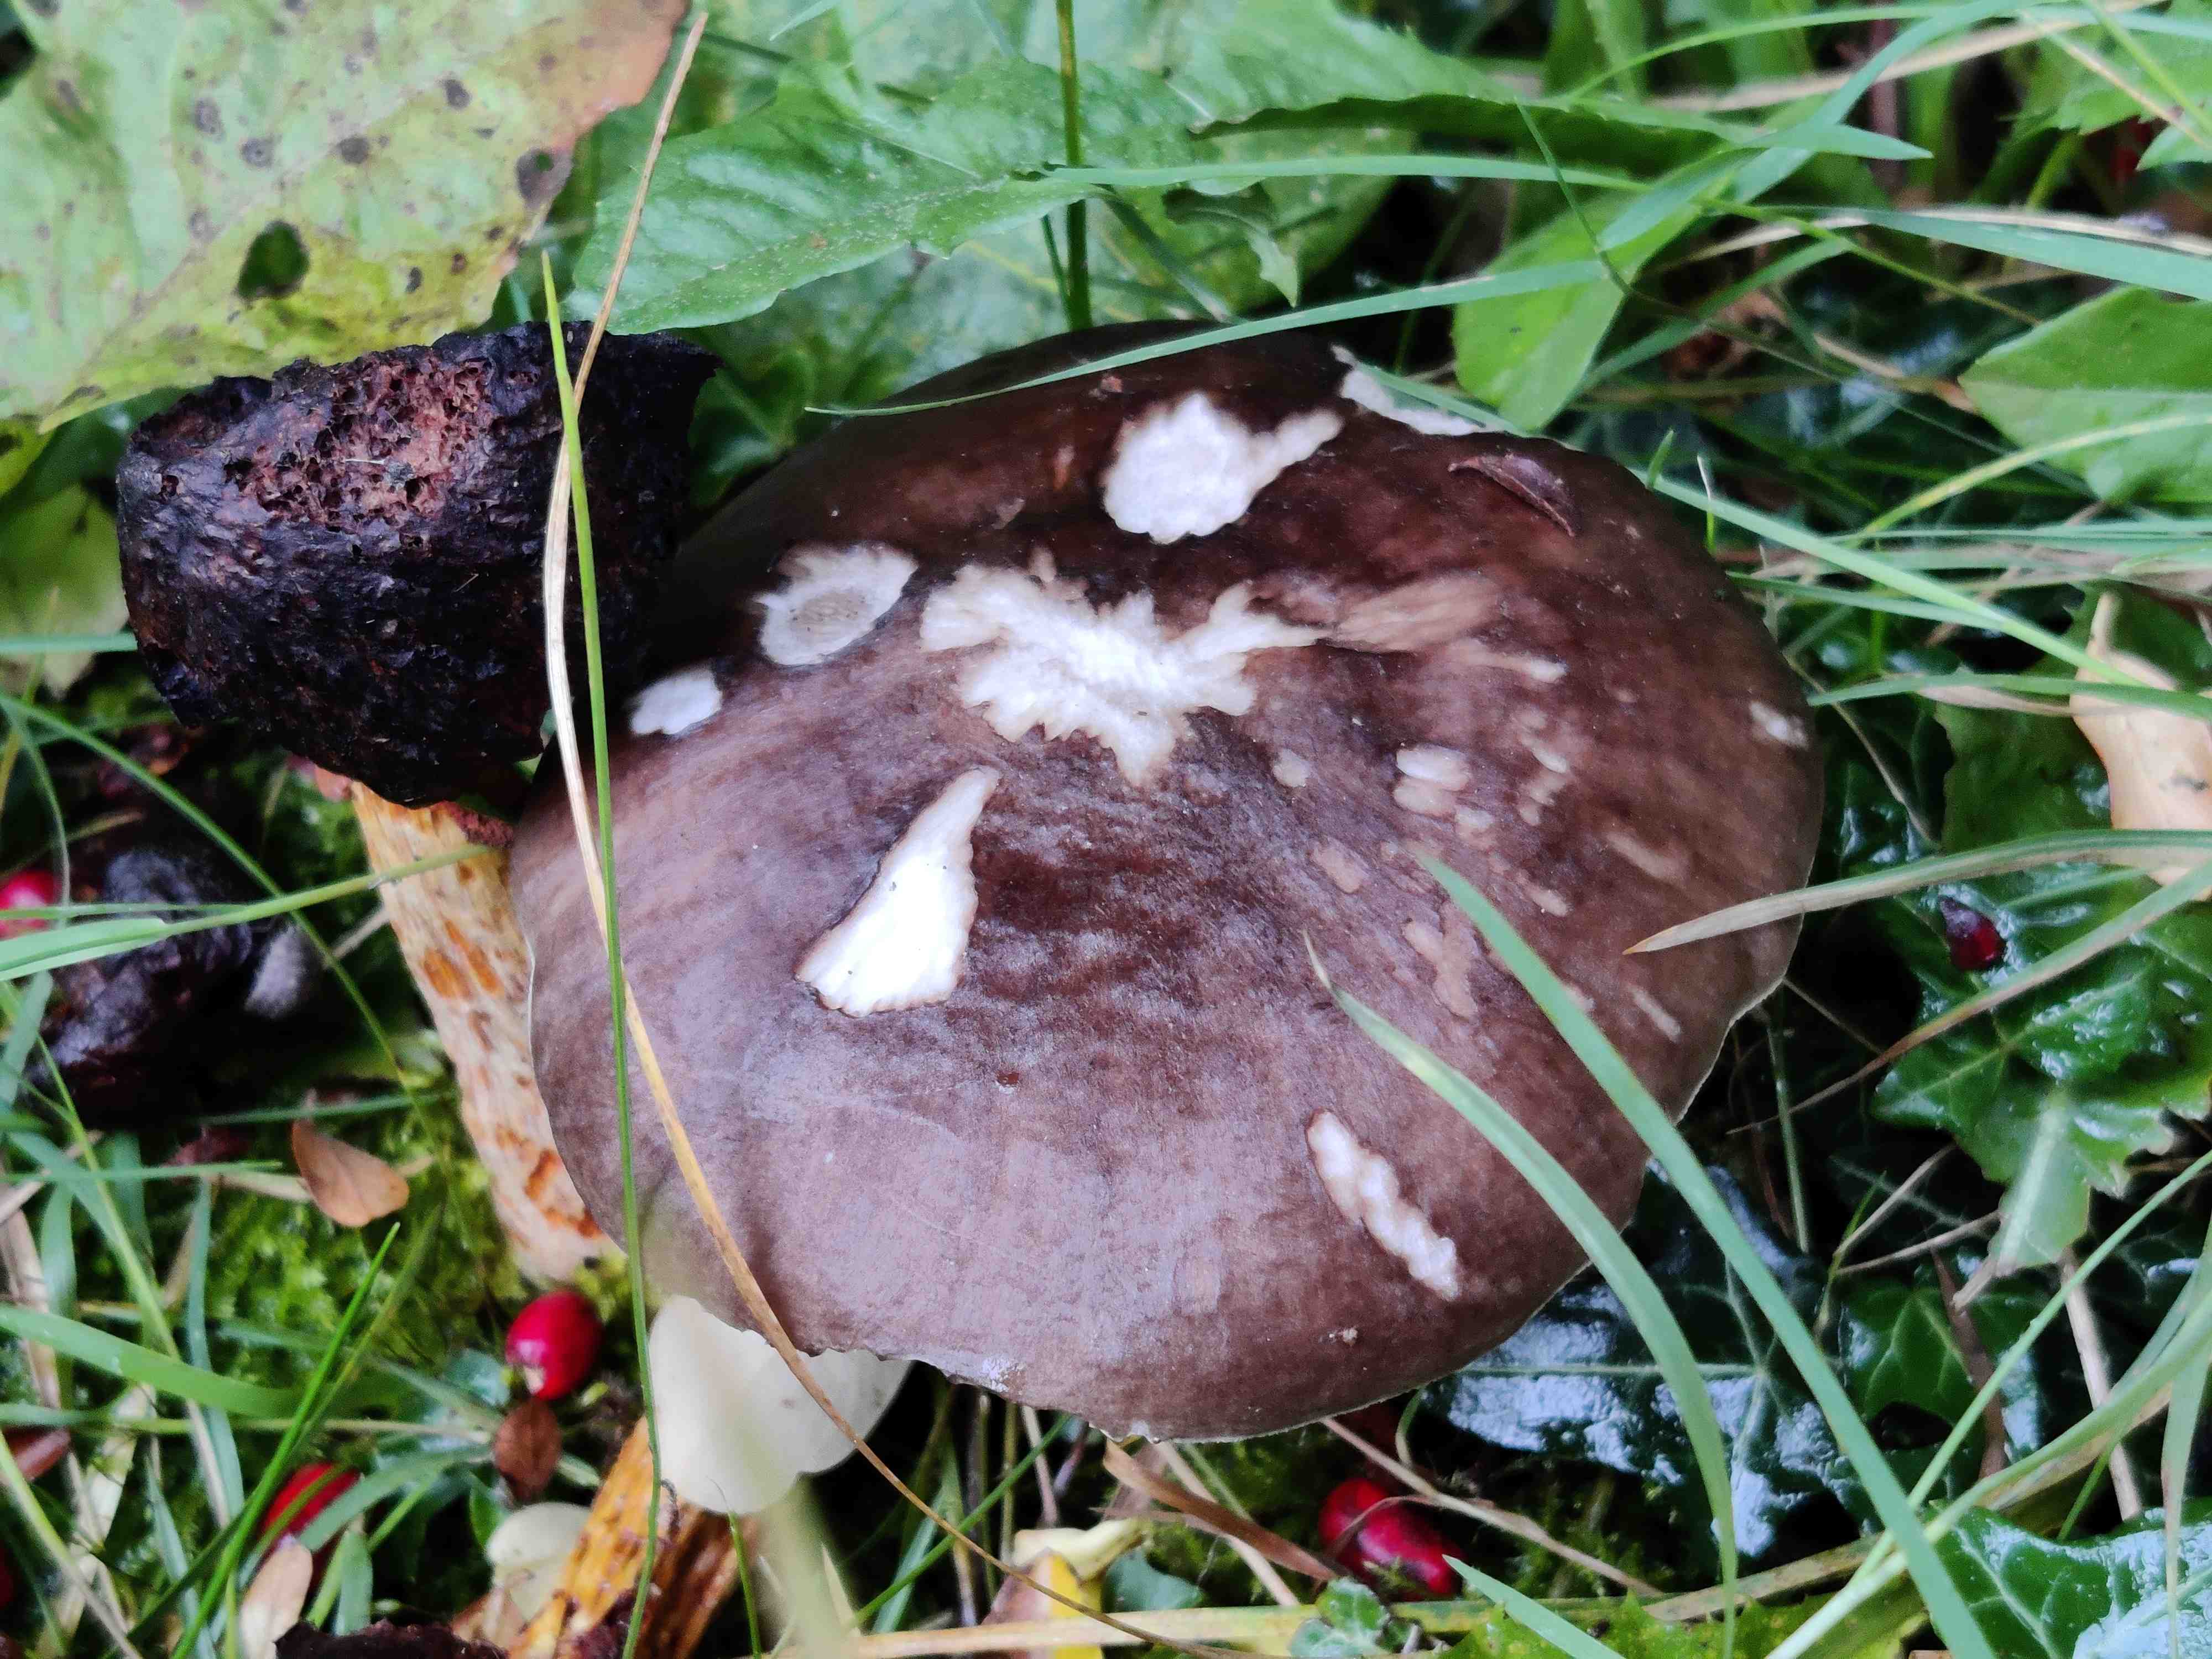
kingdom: Fungi
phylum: Basidiomycota
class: Agaricomycetes
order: Agaricales
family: Pluteaceae
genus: Pluteus
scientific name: Pluteus cervinus
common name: sodfarvet skærmhat
